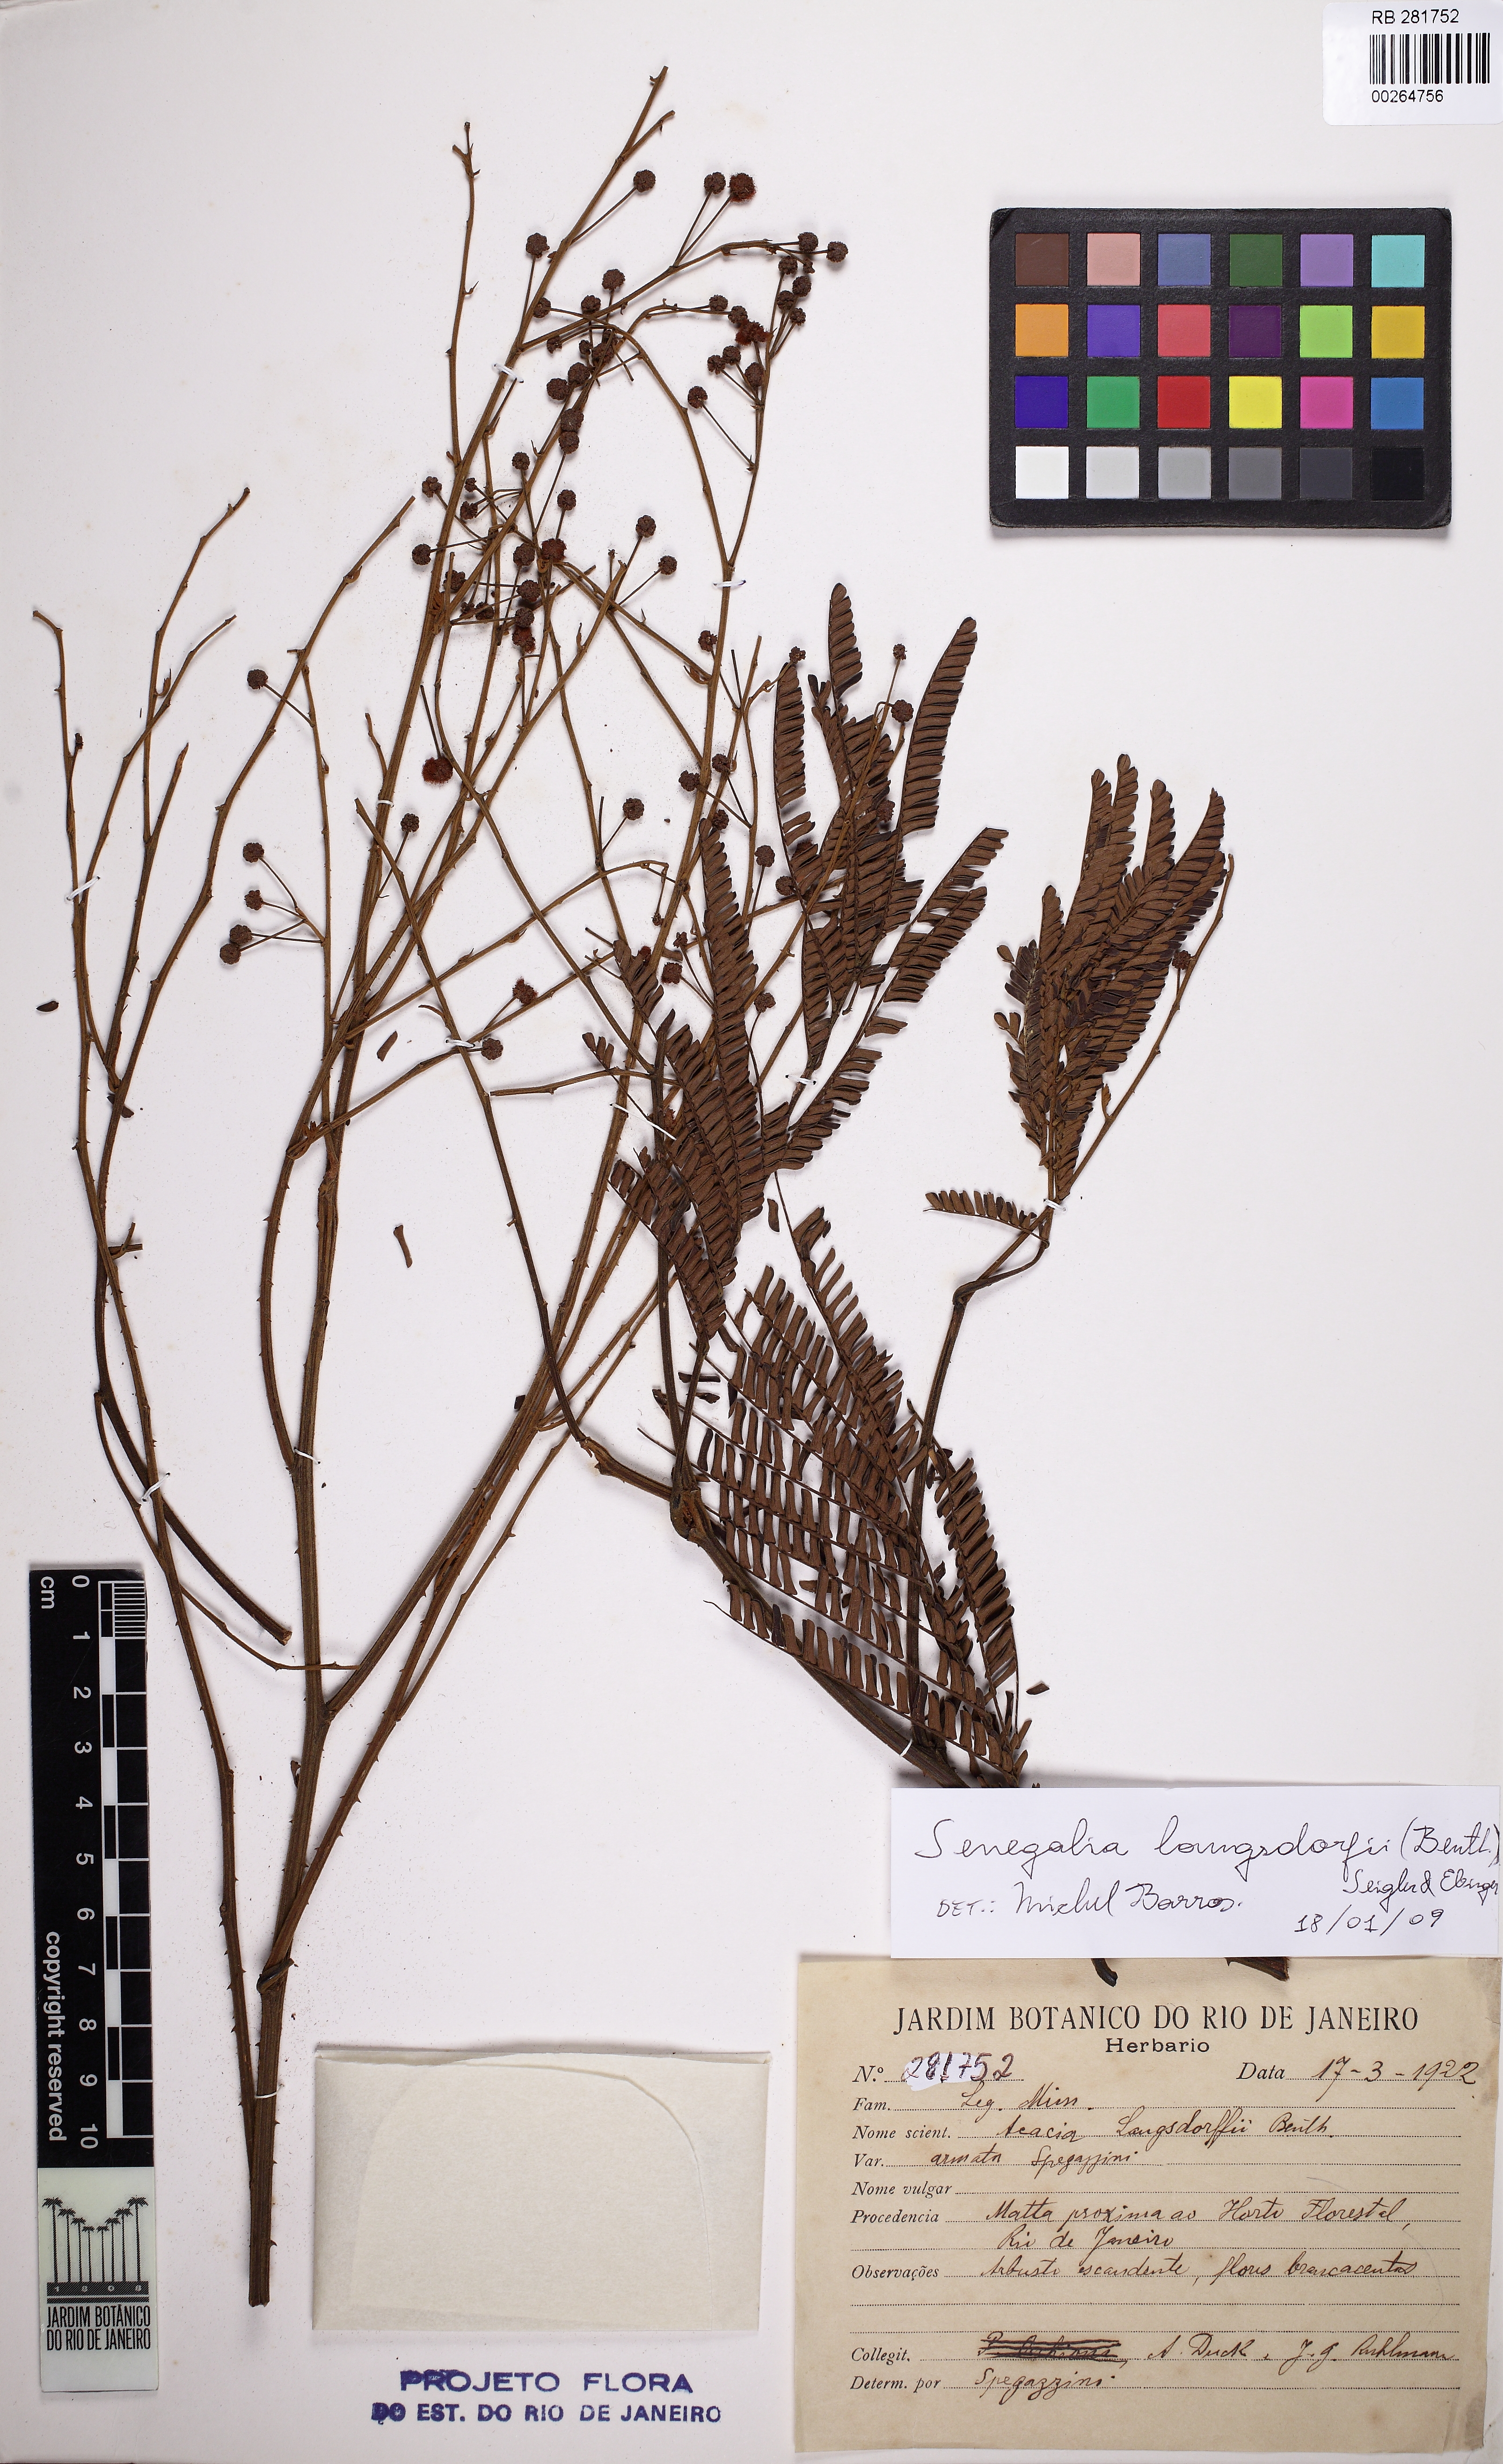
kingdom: Plantae
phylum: Tracheophyta
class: Magnoliopsida
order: Fabales
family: Fabaceae
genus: Senegalia
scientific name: Senegalia langsdorffii
